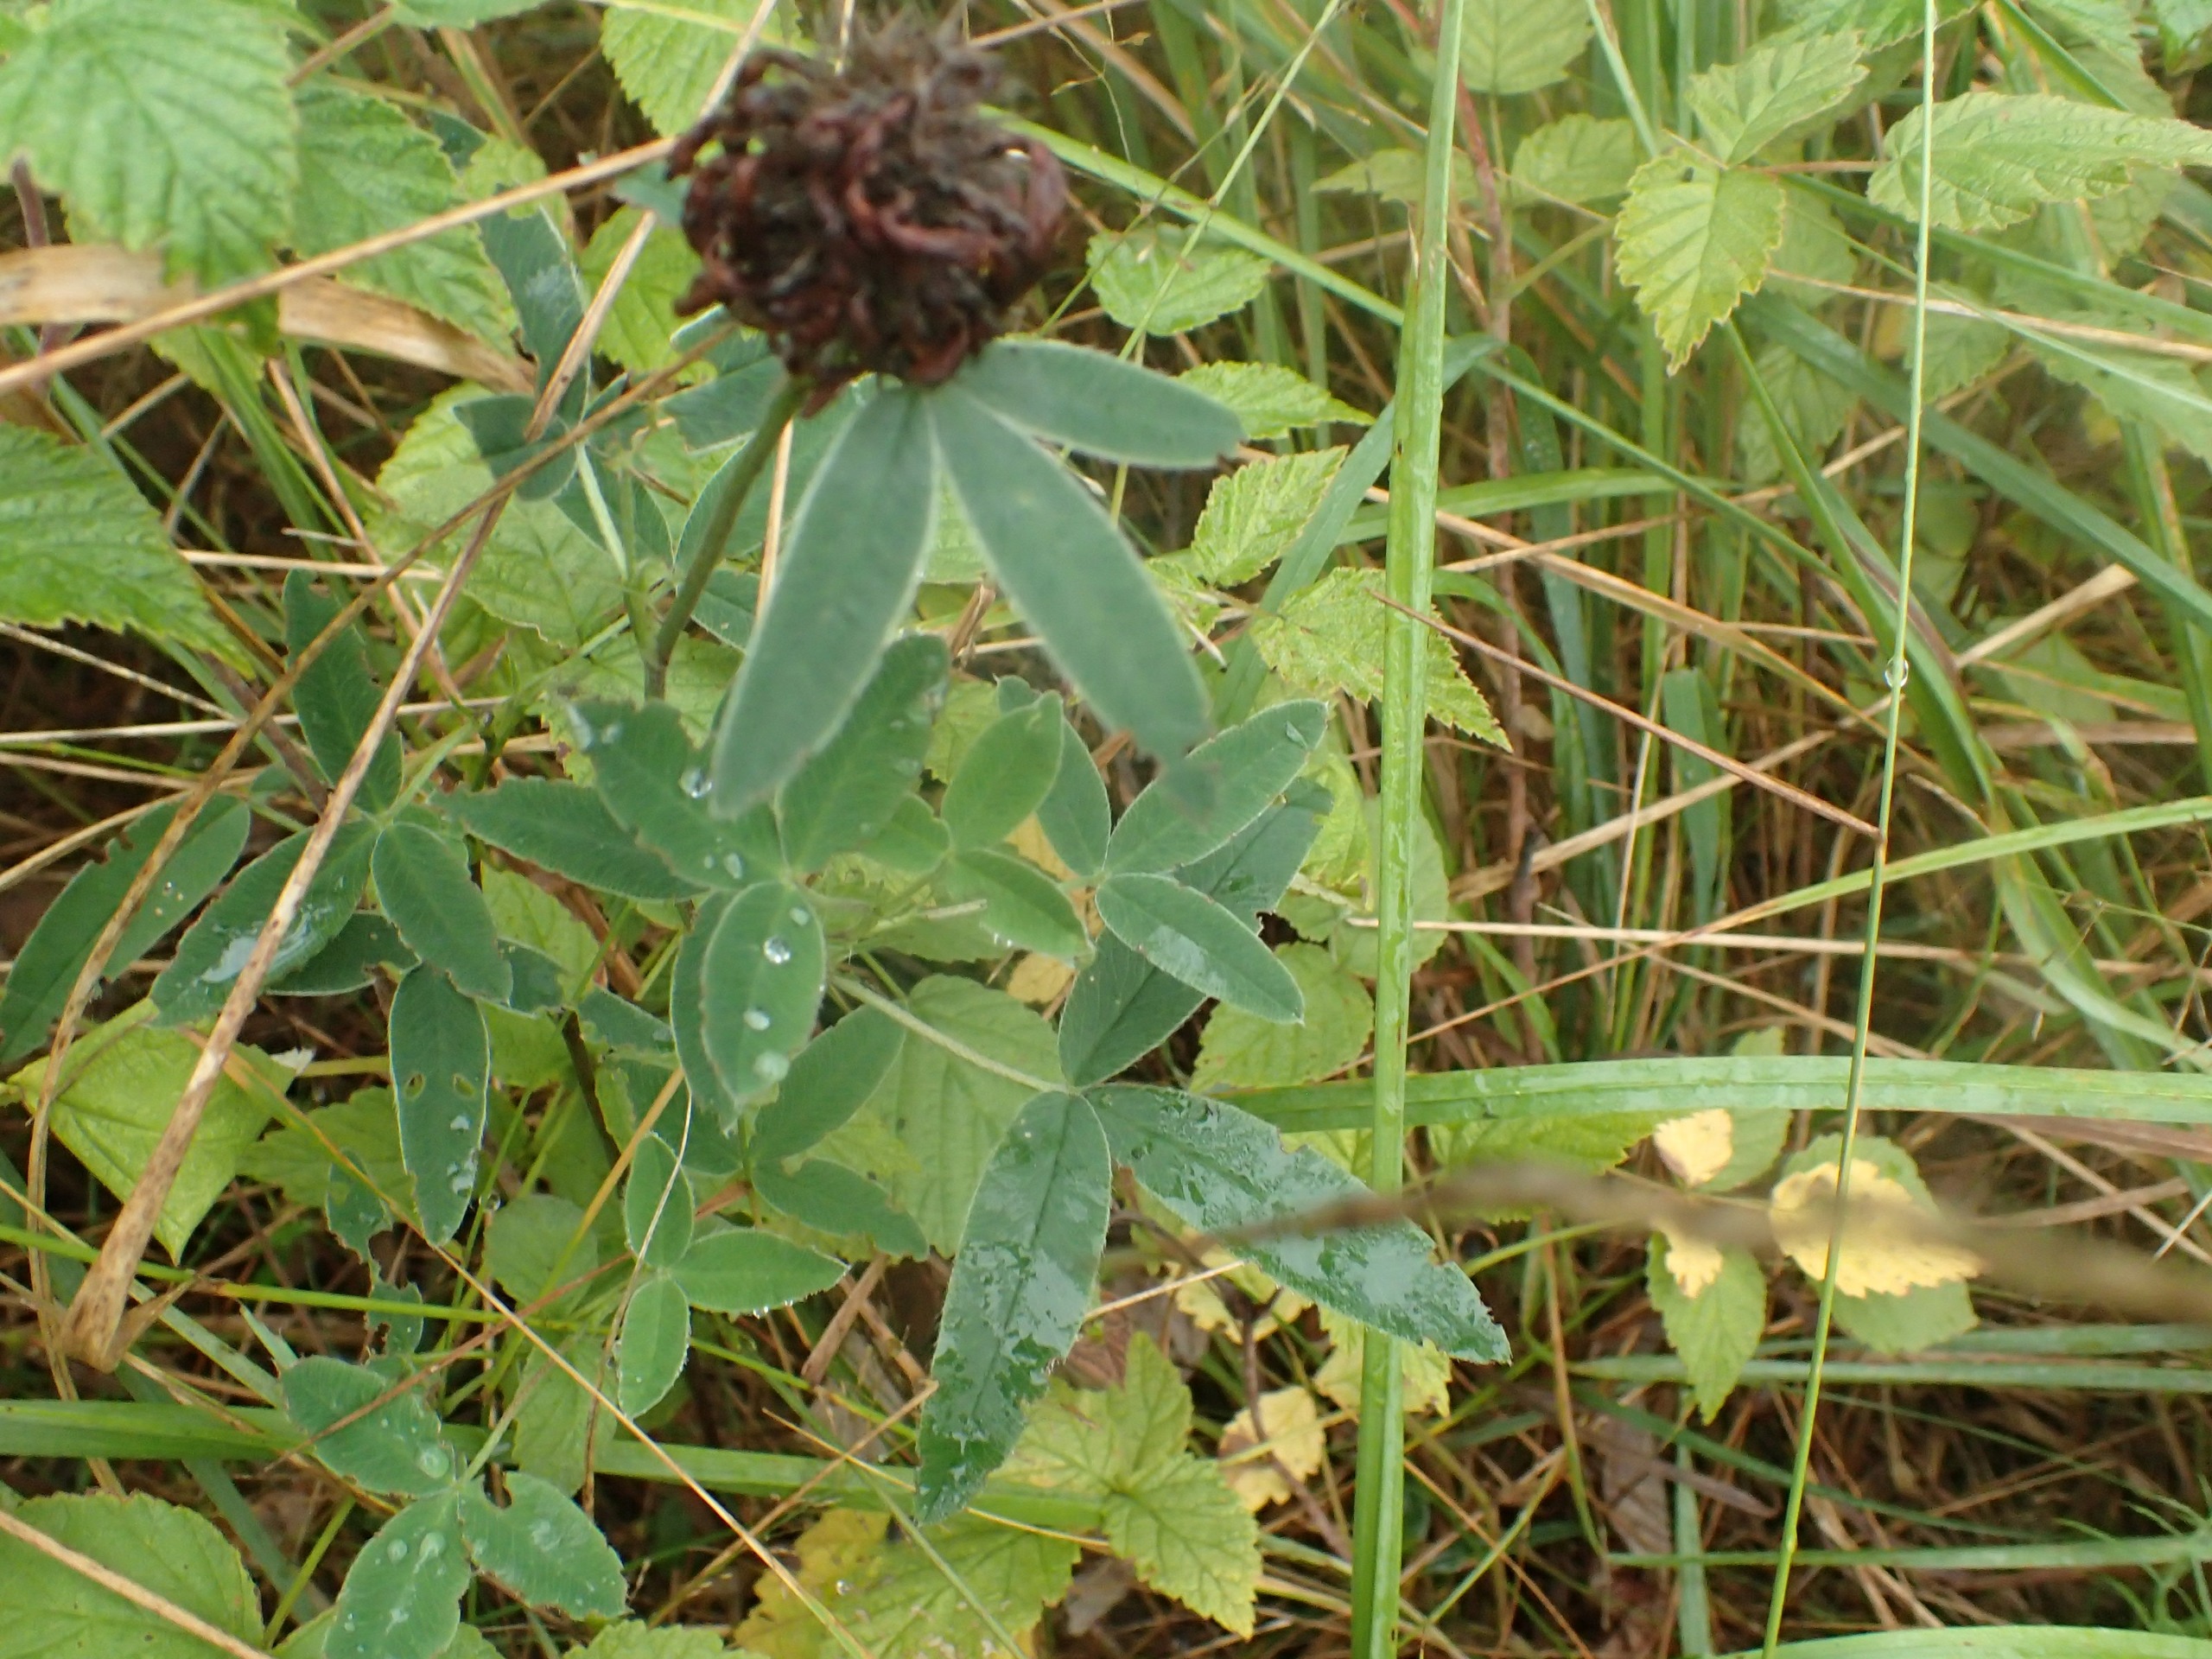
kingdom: Plantae
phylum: Tracheophyta
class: Magnoliopsida
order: Fabales
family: Fabaceae
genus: Trifolium
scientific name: Trifolium medium
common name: Bugtet kløver
